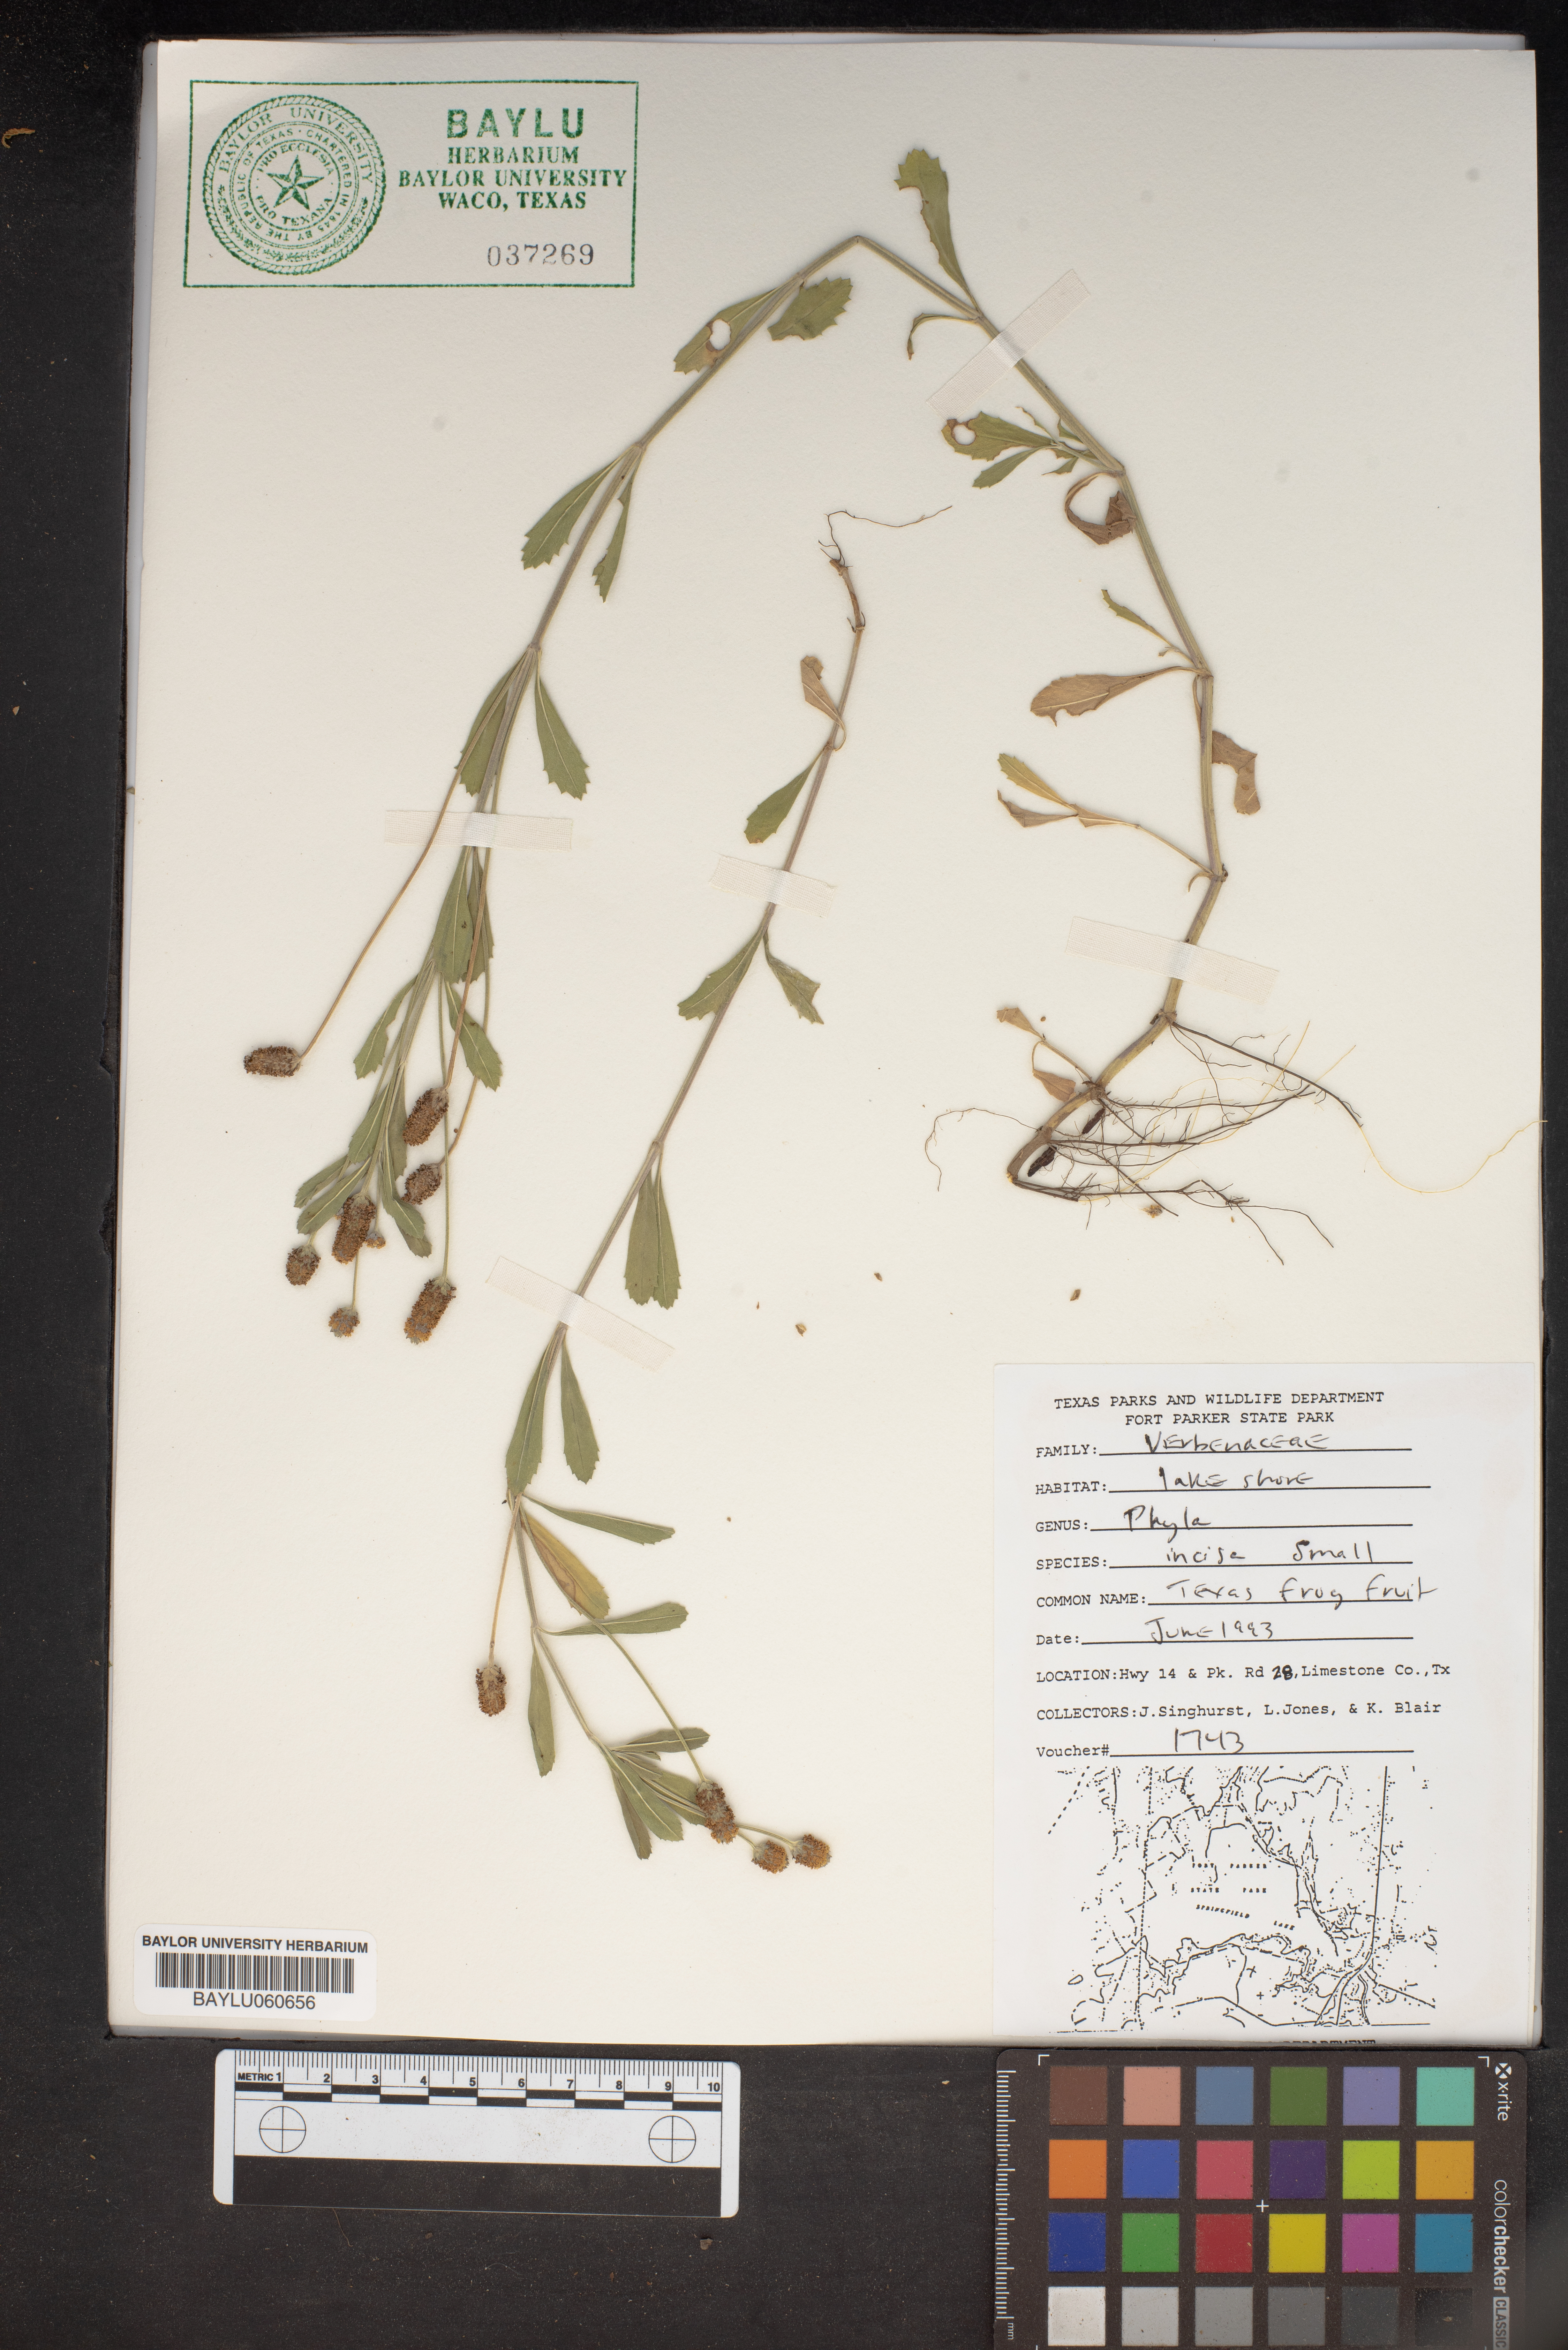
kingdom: Plantae
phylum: Tracheophyta
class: Magnoliopsida
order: Lamiales
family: Verbenaceae
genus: Phyla
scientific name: Phyla nodiflora
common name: Frogfruit
